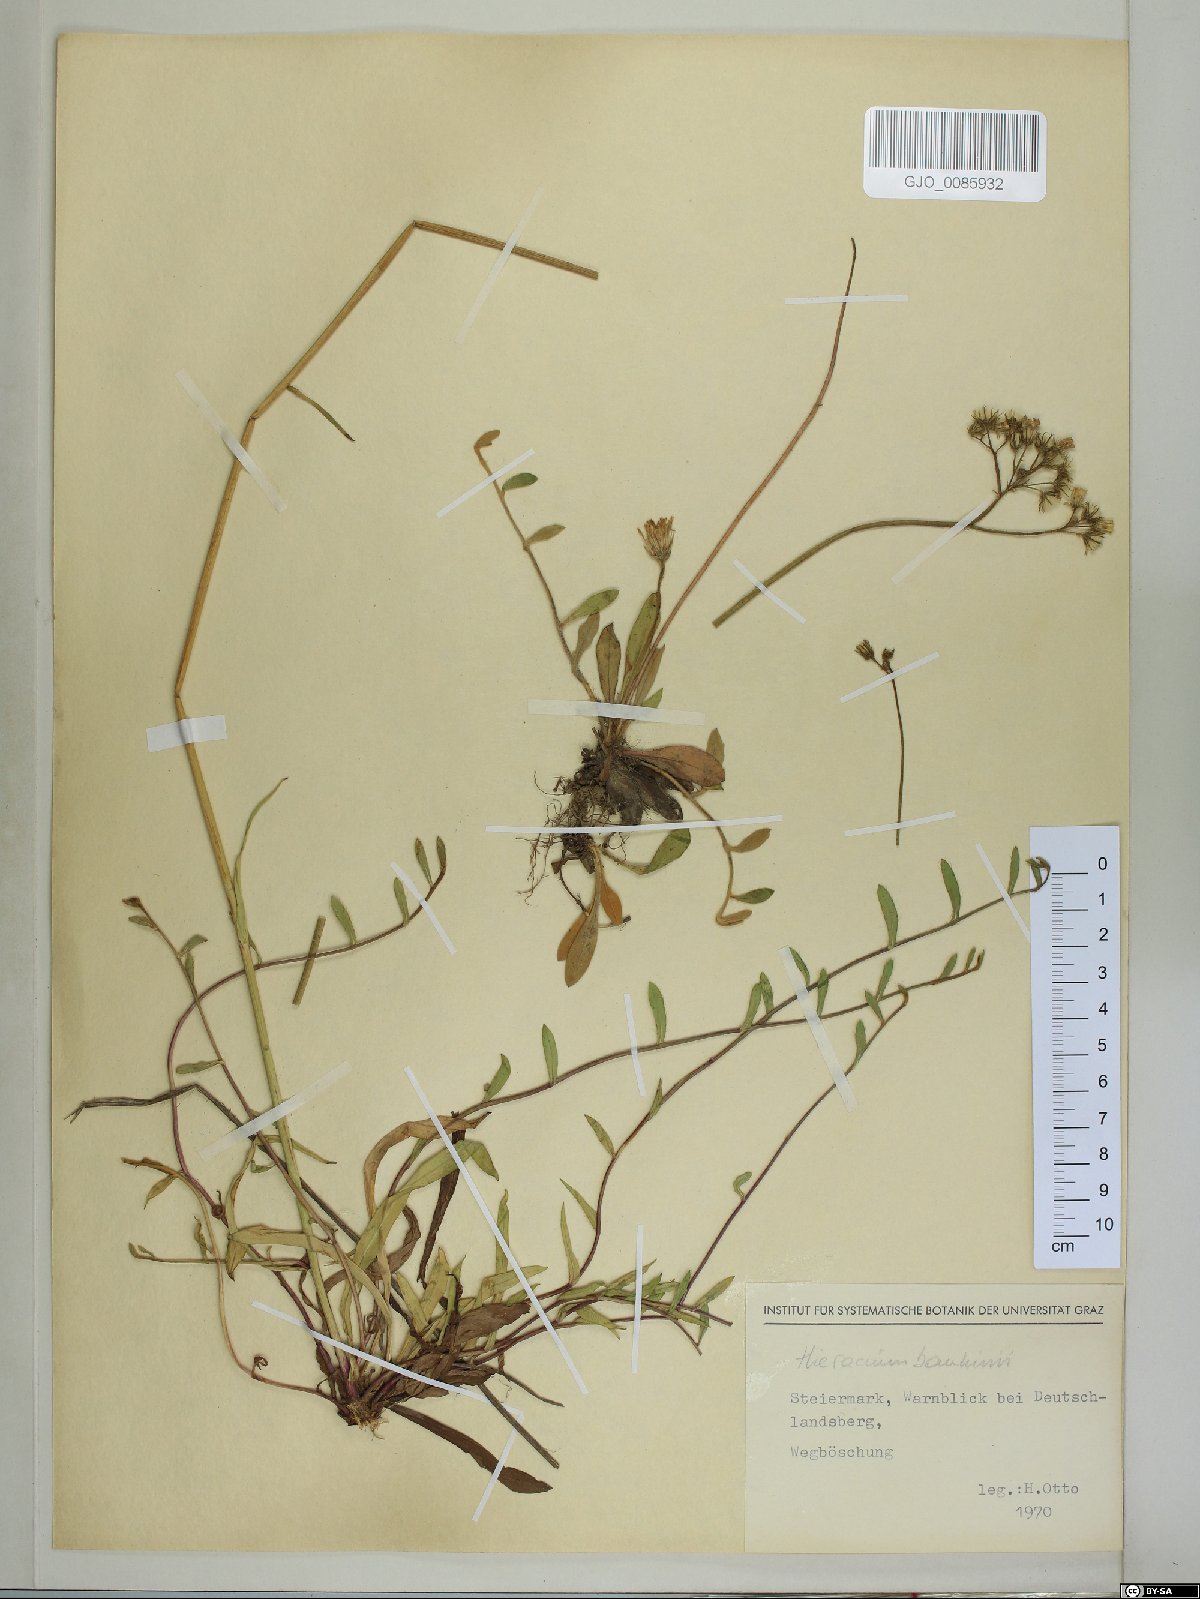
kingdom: Plantae
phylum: Tracheophyta
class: Magnoliopsida
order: Asterales
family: Asteraceae
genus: Pilosella
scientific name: Pilosella bauhini
